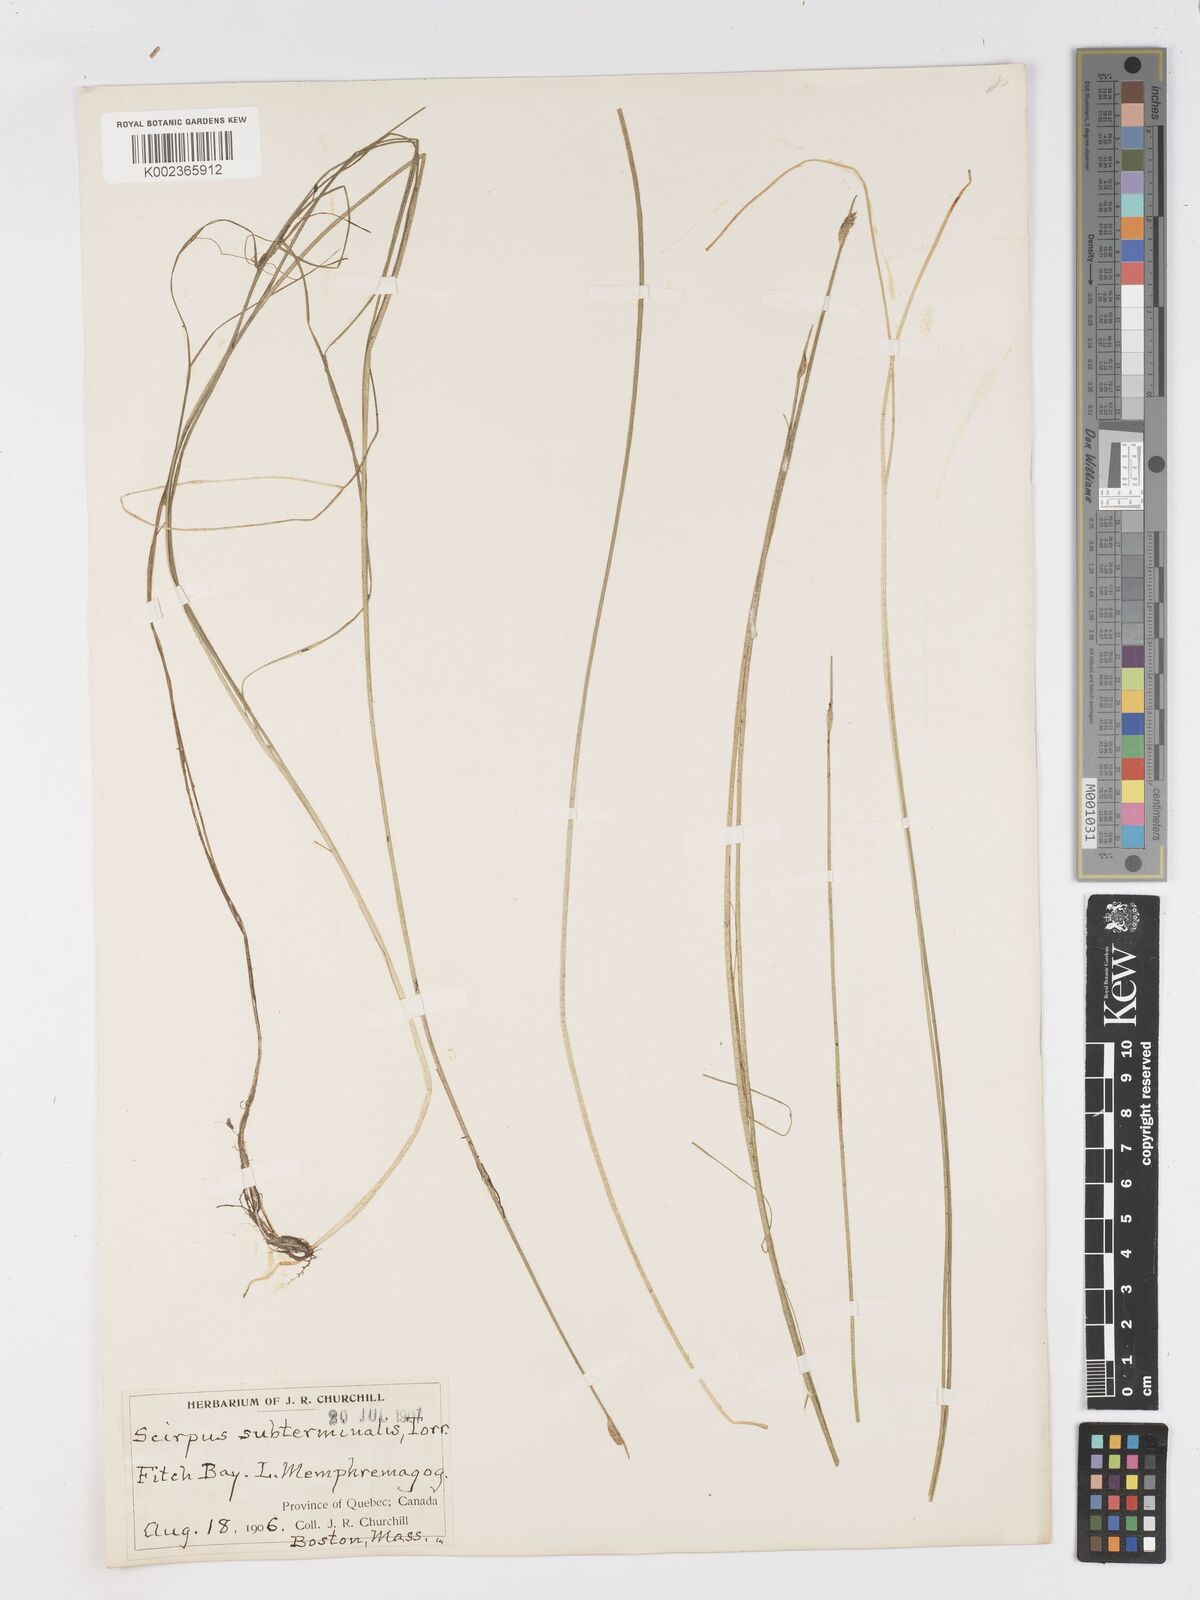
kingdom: Plantae
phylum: Tracheophyta
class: Liliopsida
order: Poales
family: Cyperaceae
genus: Schoenoplectus
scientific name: Schoenoplectus subterminalis
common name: Swaying bulrush
